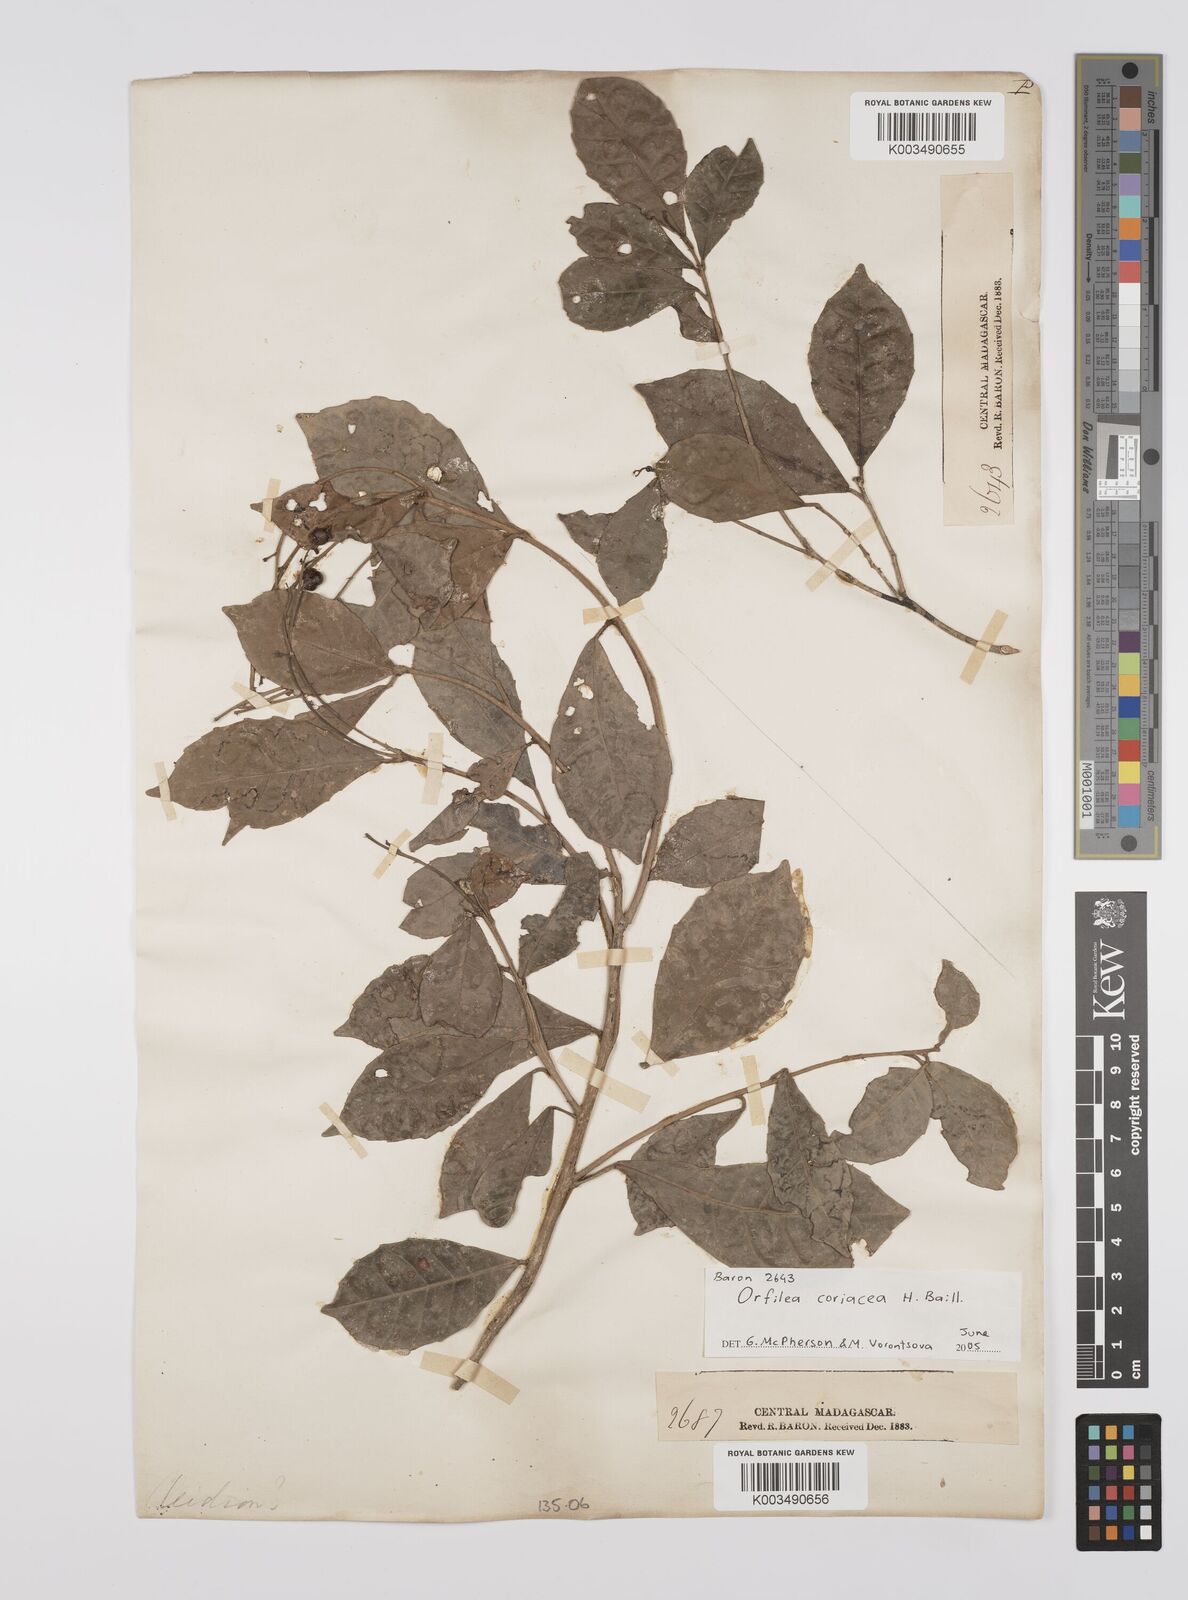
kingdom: Plantae
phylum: Tracheophyta
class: Magnoliopsida
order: Malpighiales
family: Euphorbiaceae
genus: Orfilea
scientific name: Orfilea coriacea
